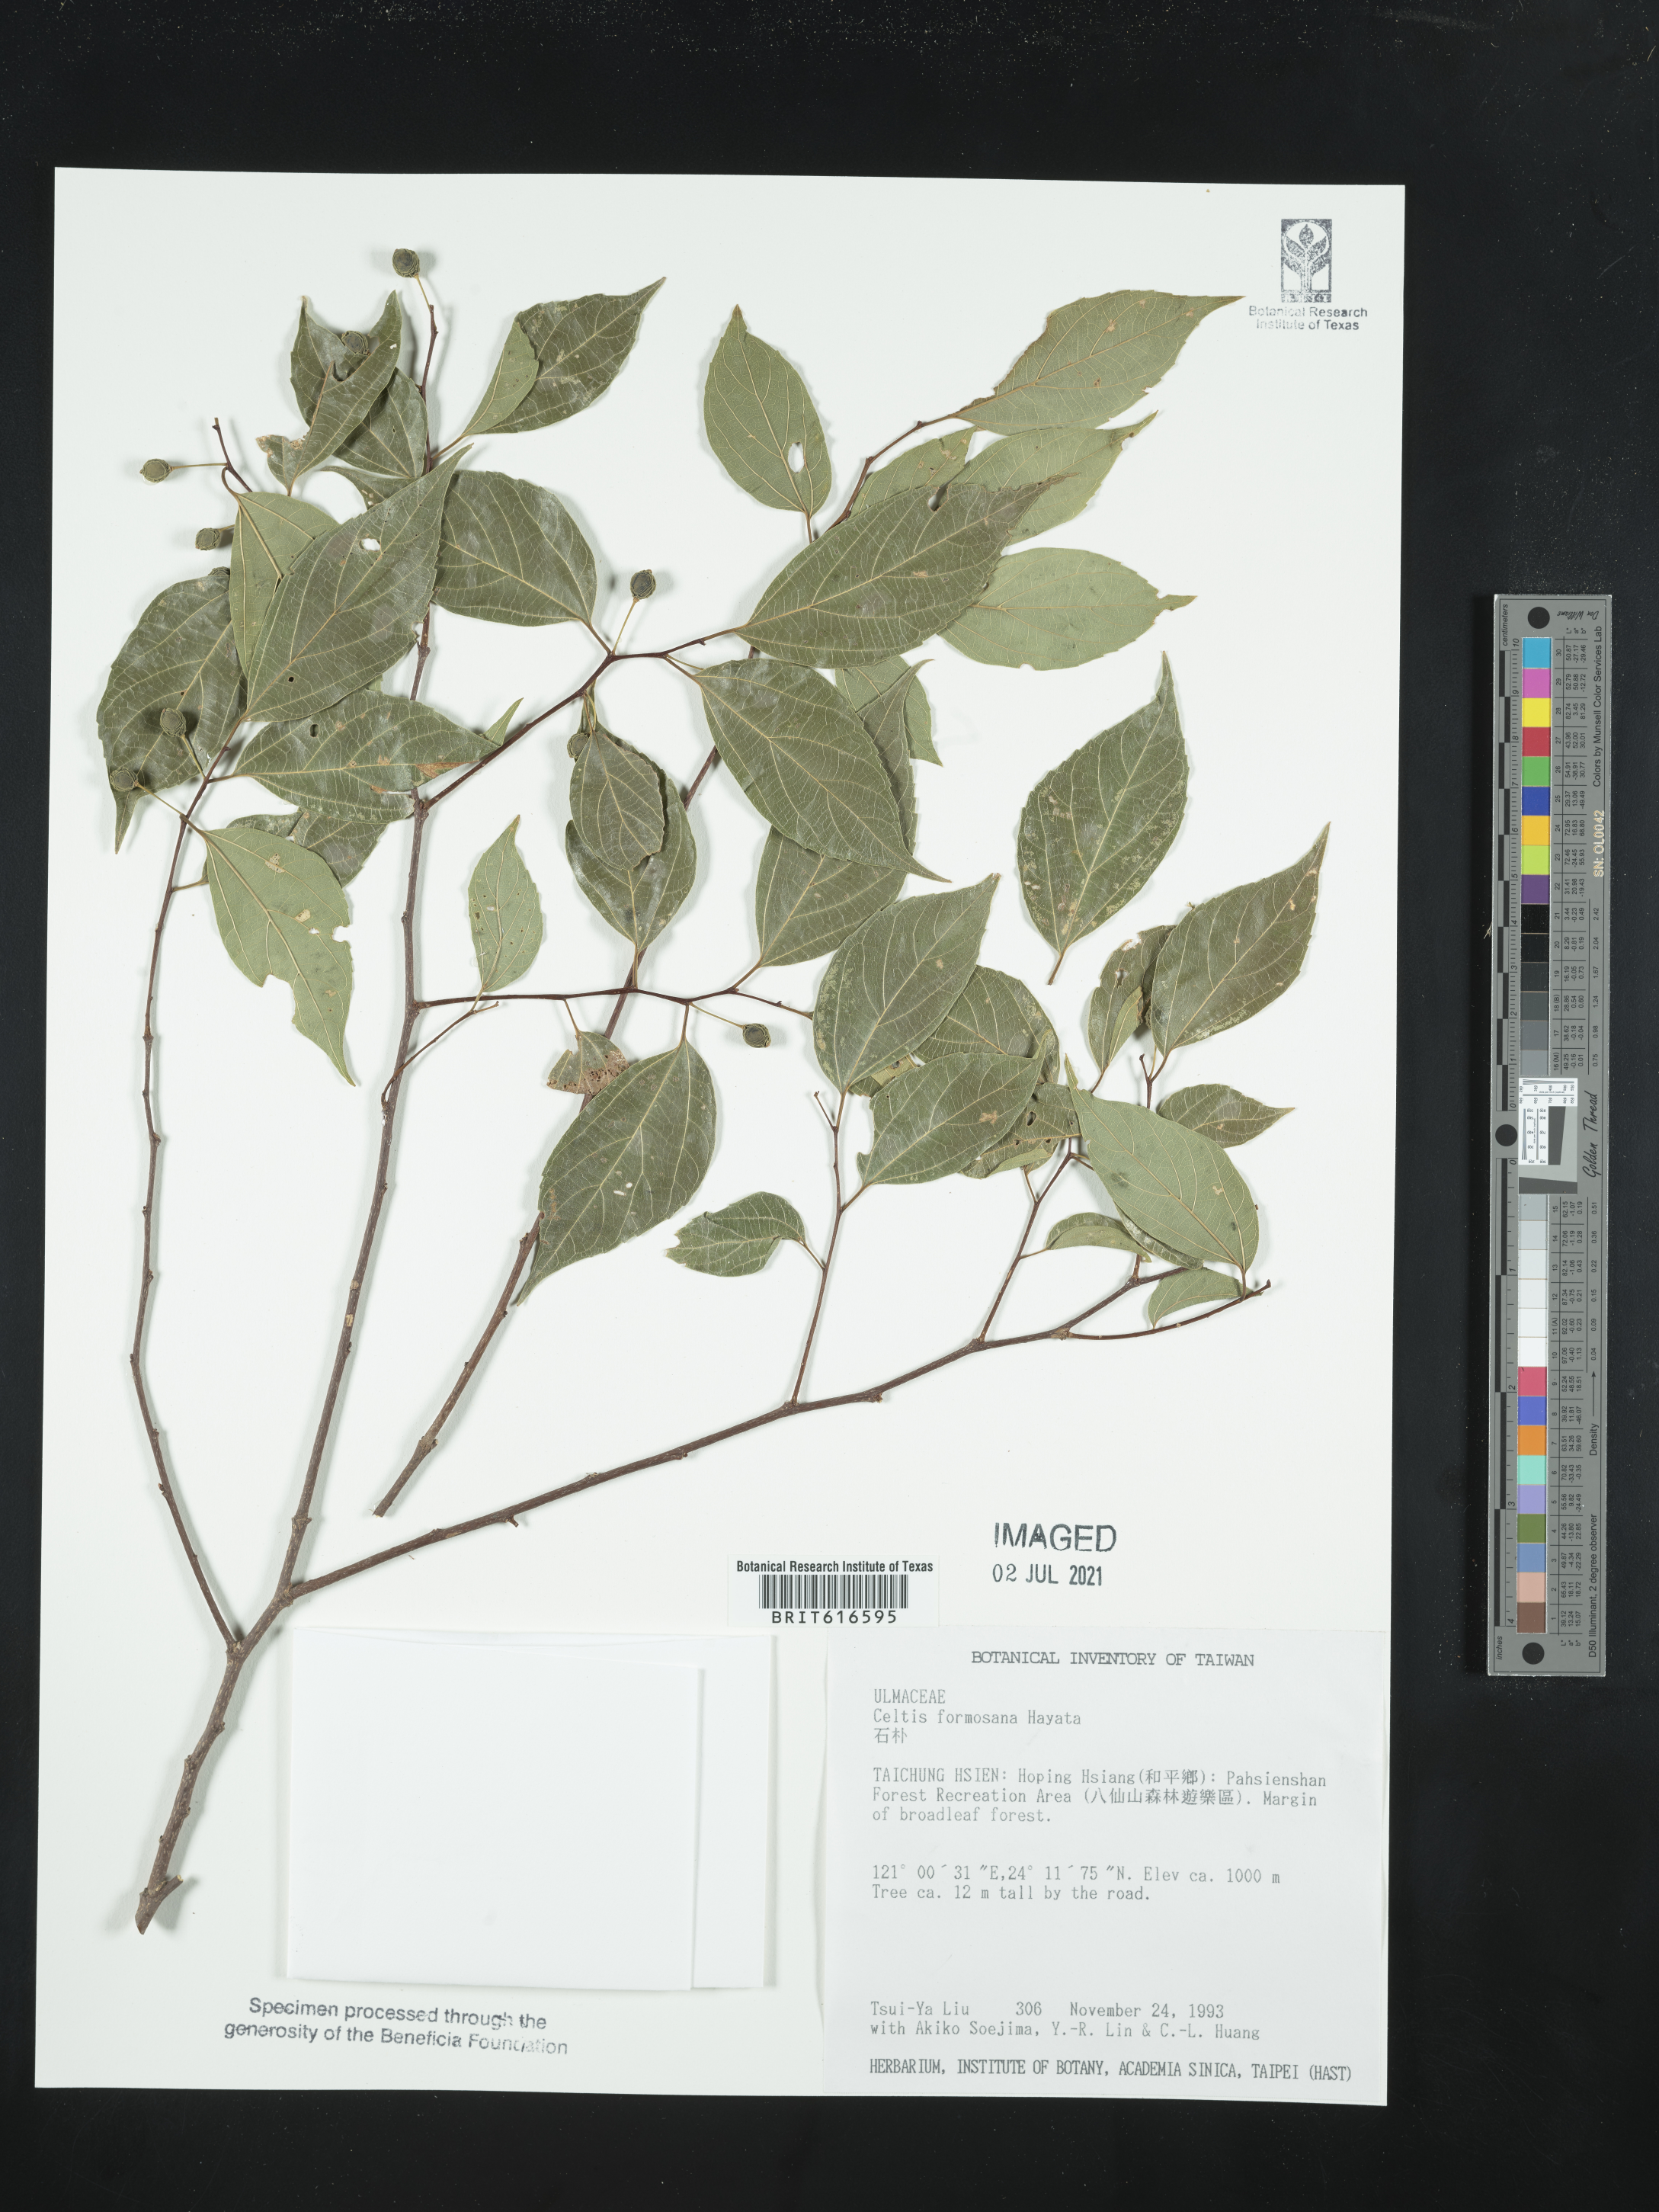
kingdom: Plantae
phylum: Tracheophyta
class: Magnoliopsida
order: Rosales
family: Cannabaceae
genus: Celtis
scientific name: Celtis tetrandra
